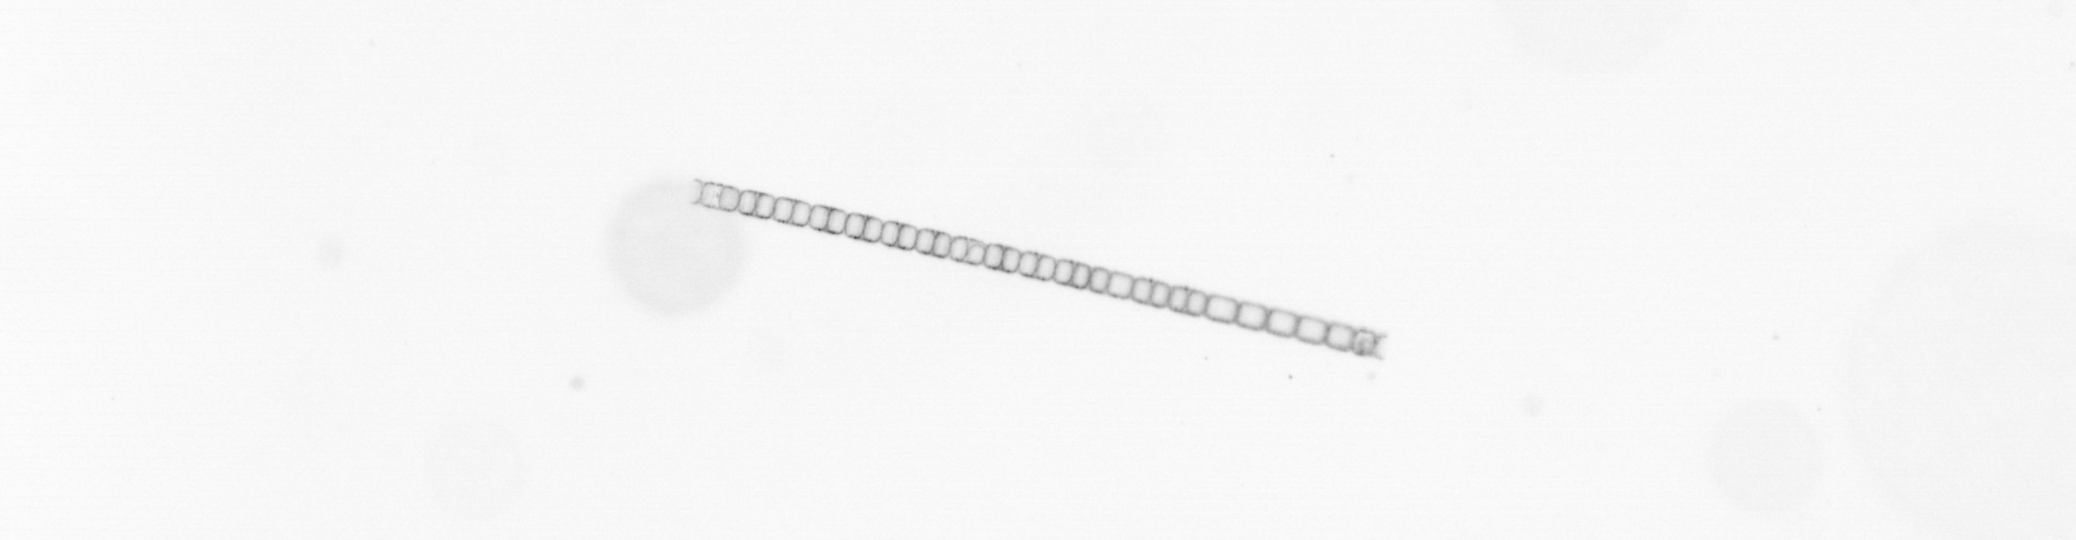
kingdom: Chromista
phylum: Ochrophyta
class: Bacillariophyceae
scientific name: Bacillariophyceae
